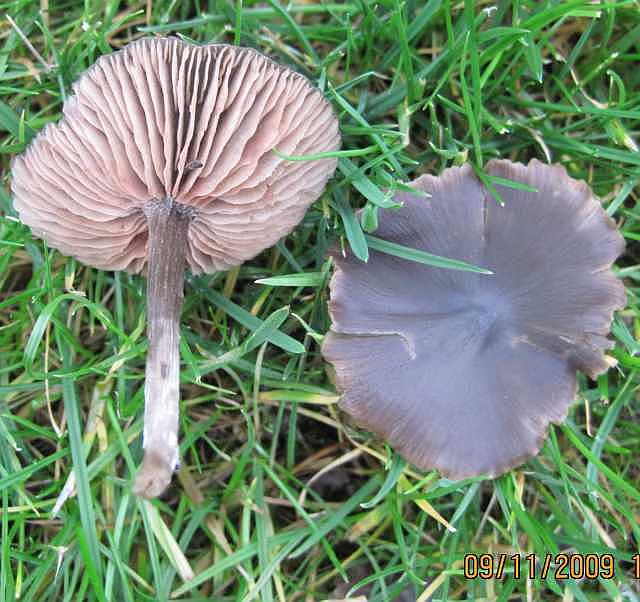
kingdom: Fungi
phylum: Basidiomycota
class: Agaricomycetes
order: Agaricales
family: Entolomataceae
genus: Entoloma
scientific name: Entoloma sericeum
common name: silkeglinsende rødblad
